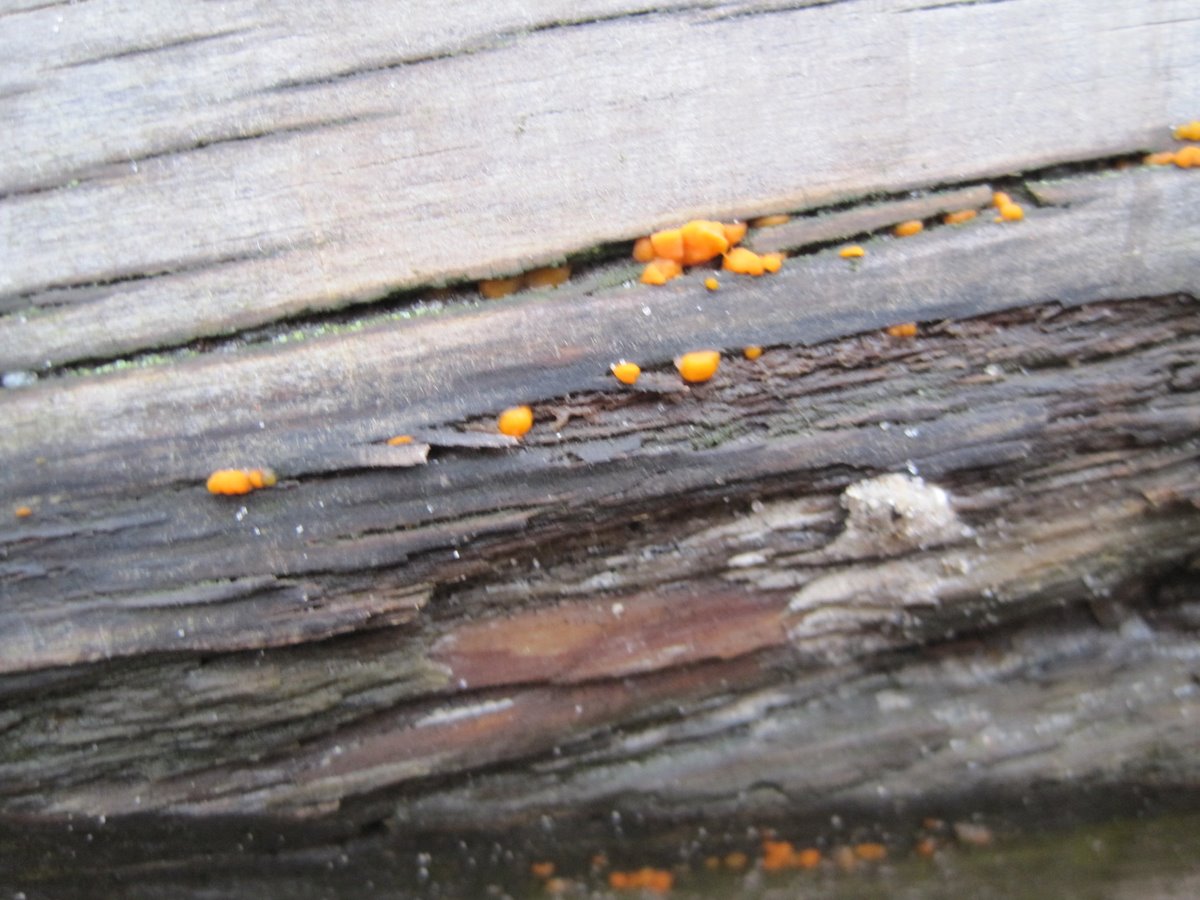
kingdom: Fungi
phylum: Basidiomycota
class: Dacrymycetes
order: Dacrymycetales
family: Dacrymycetaceae
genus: Dacrymyces
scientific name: Dacrymyces stillatus
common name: almindelig tåresvamp
